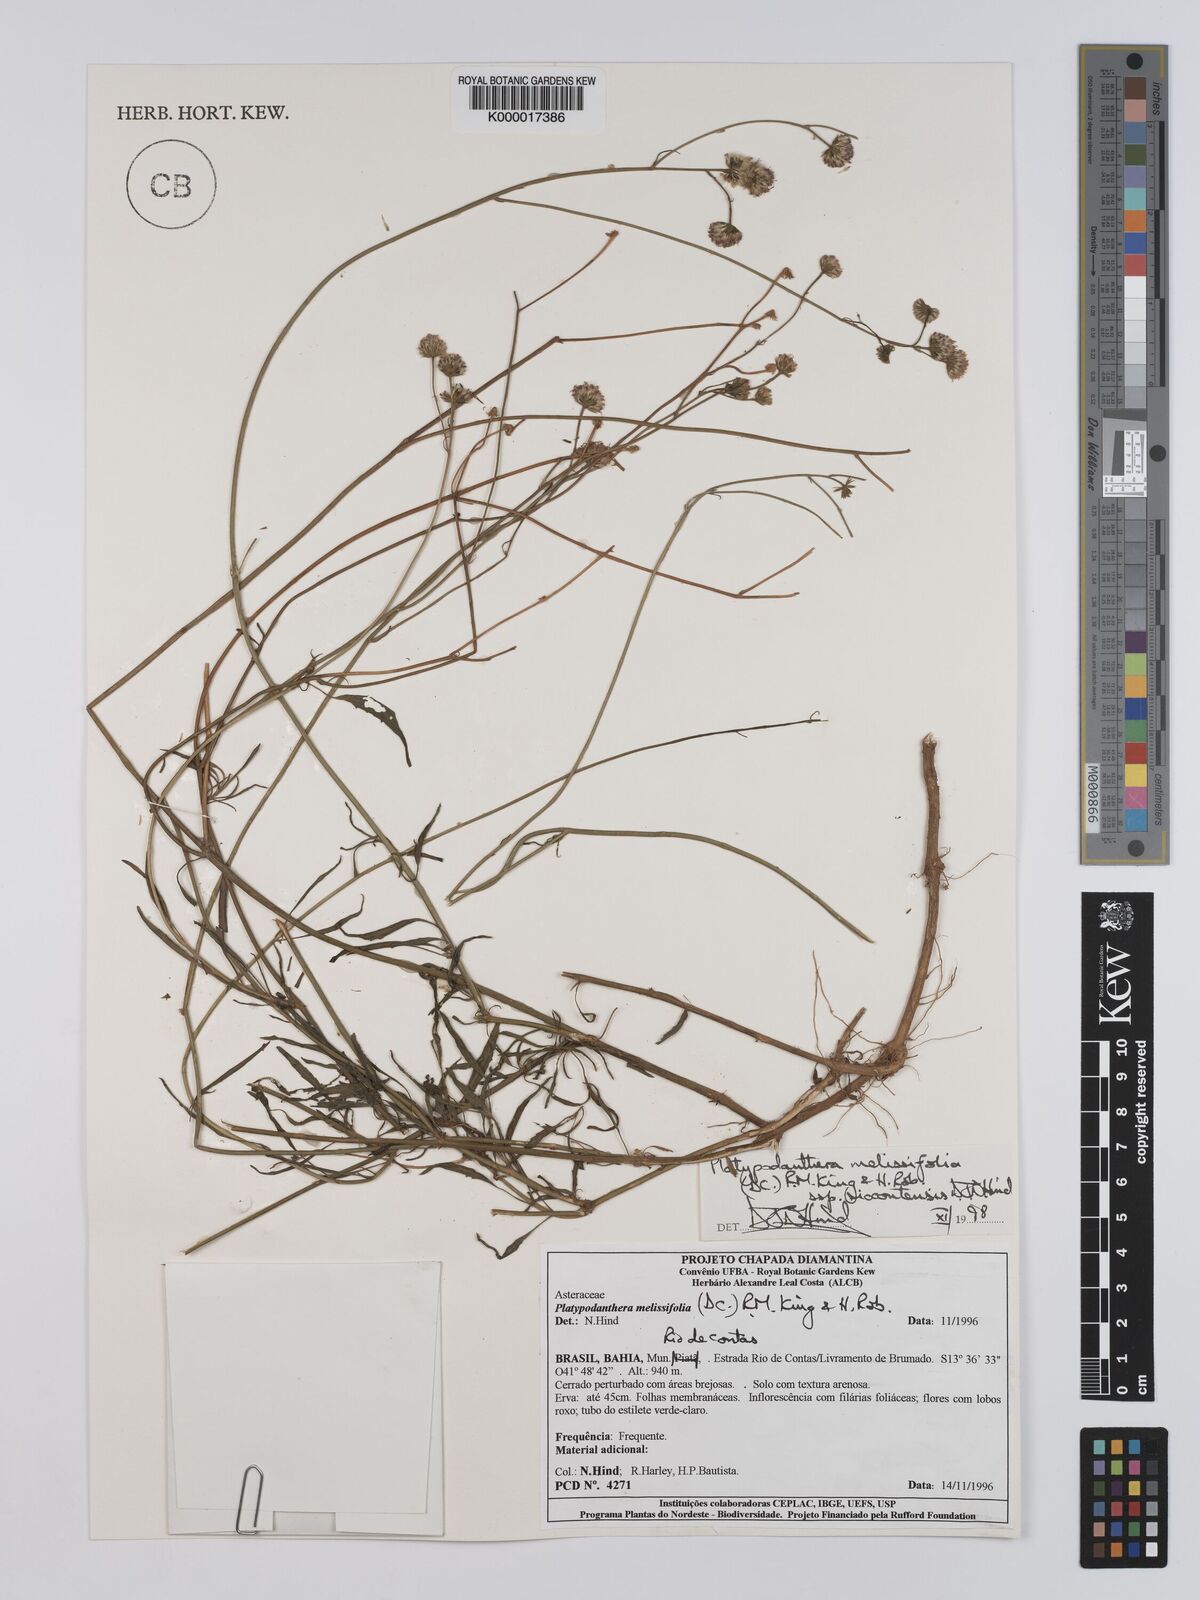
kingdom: Plantae
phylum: Tracheophyta
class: Magnoliopsida
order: Asterales
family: Asteraceae
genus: Platypodanthera
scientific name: Platypodanthera melissifolia
